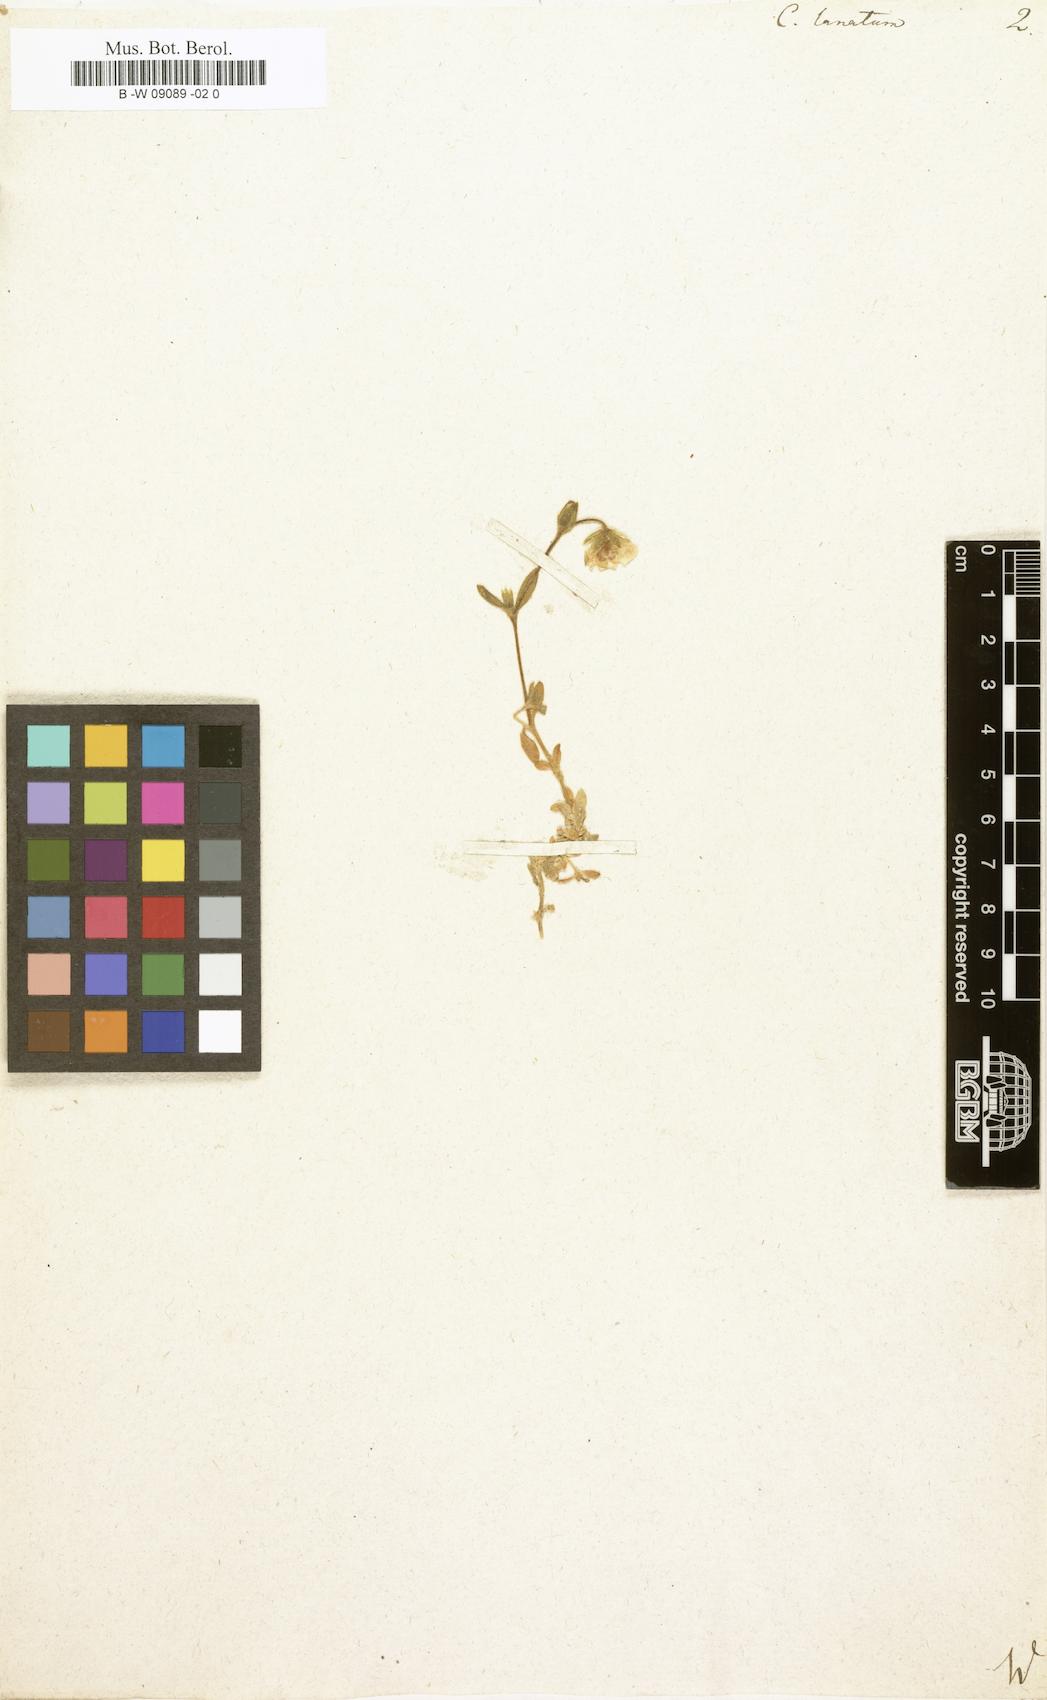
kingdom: Plantae
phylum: Tracheophyta
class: Magnoliopsida
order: Caryophyllales
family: Caryophyllaceae
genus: Cerastium
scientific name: Cerastium alpinum
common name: Alpine mouse-ear
